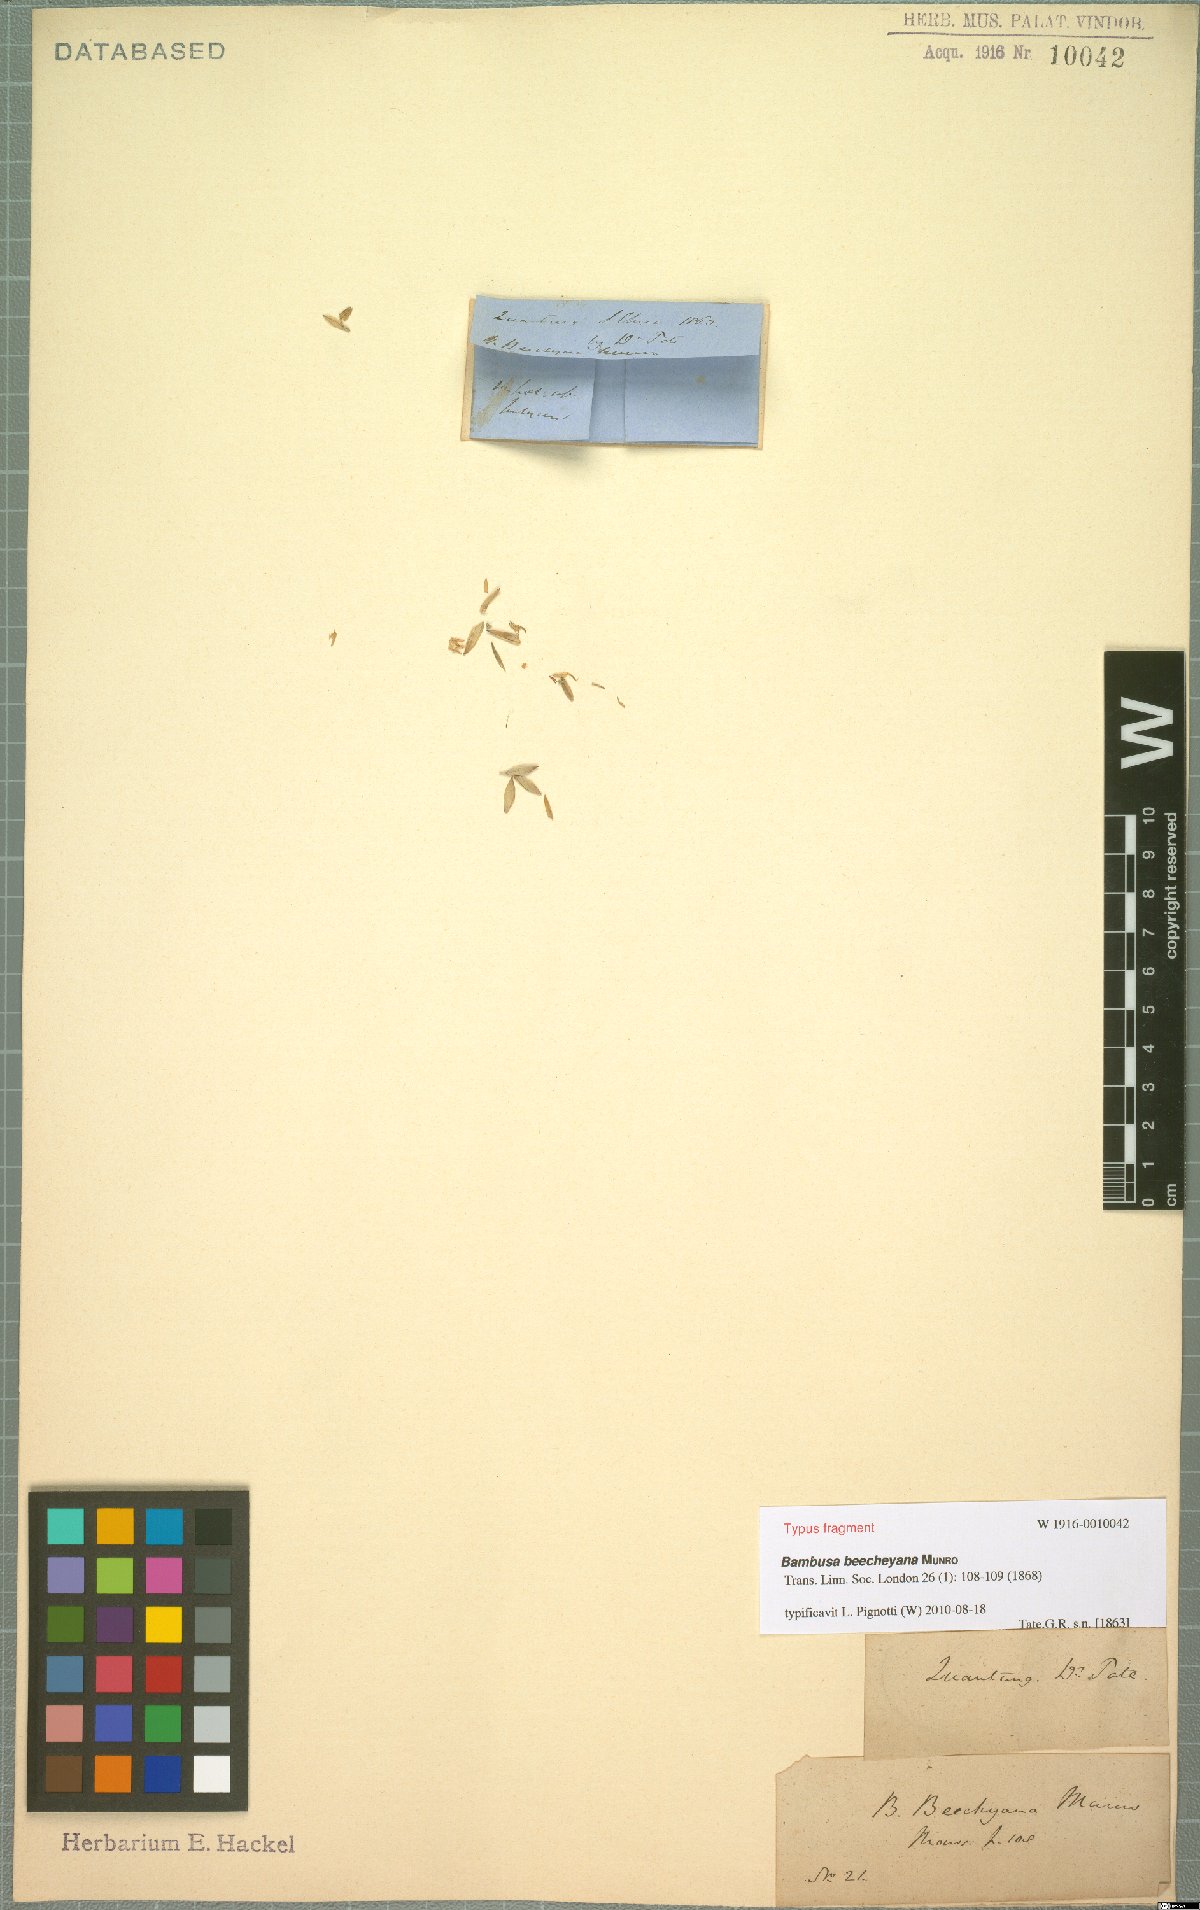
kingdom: Plantae
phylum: Tracheophyta
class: Liliopsida
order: Poales
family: Poaceae
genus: Bambusa
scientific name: Bambusa beecheyana
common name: Beechey's bamboo
